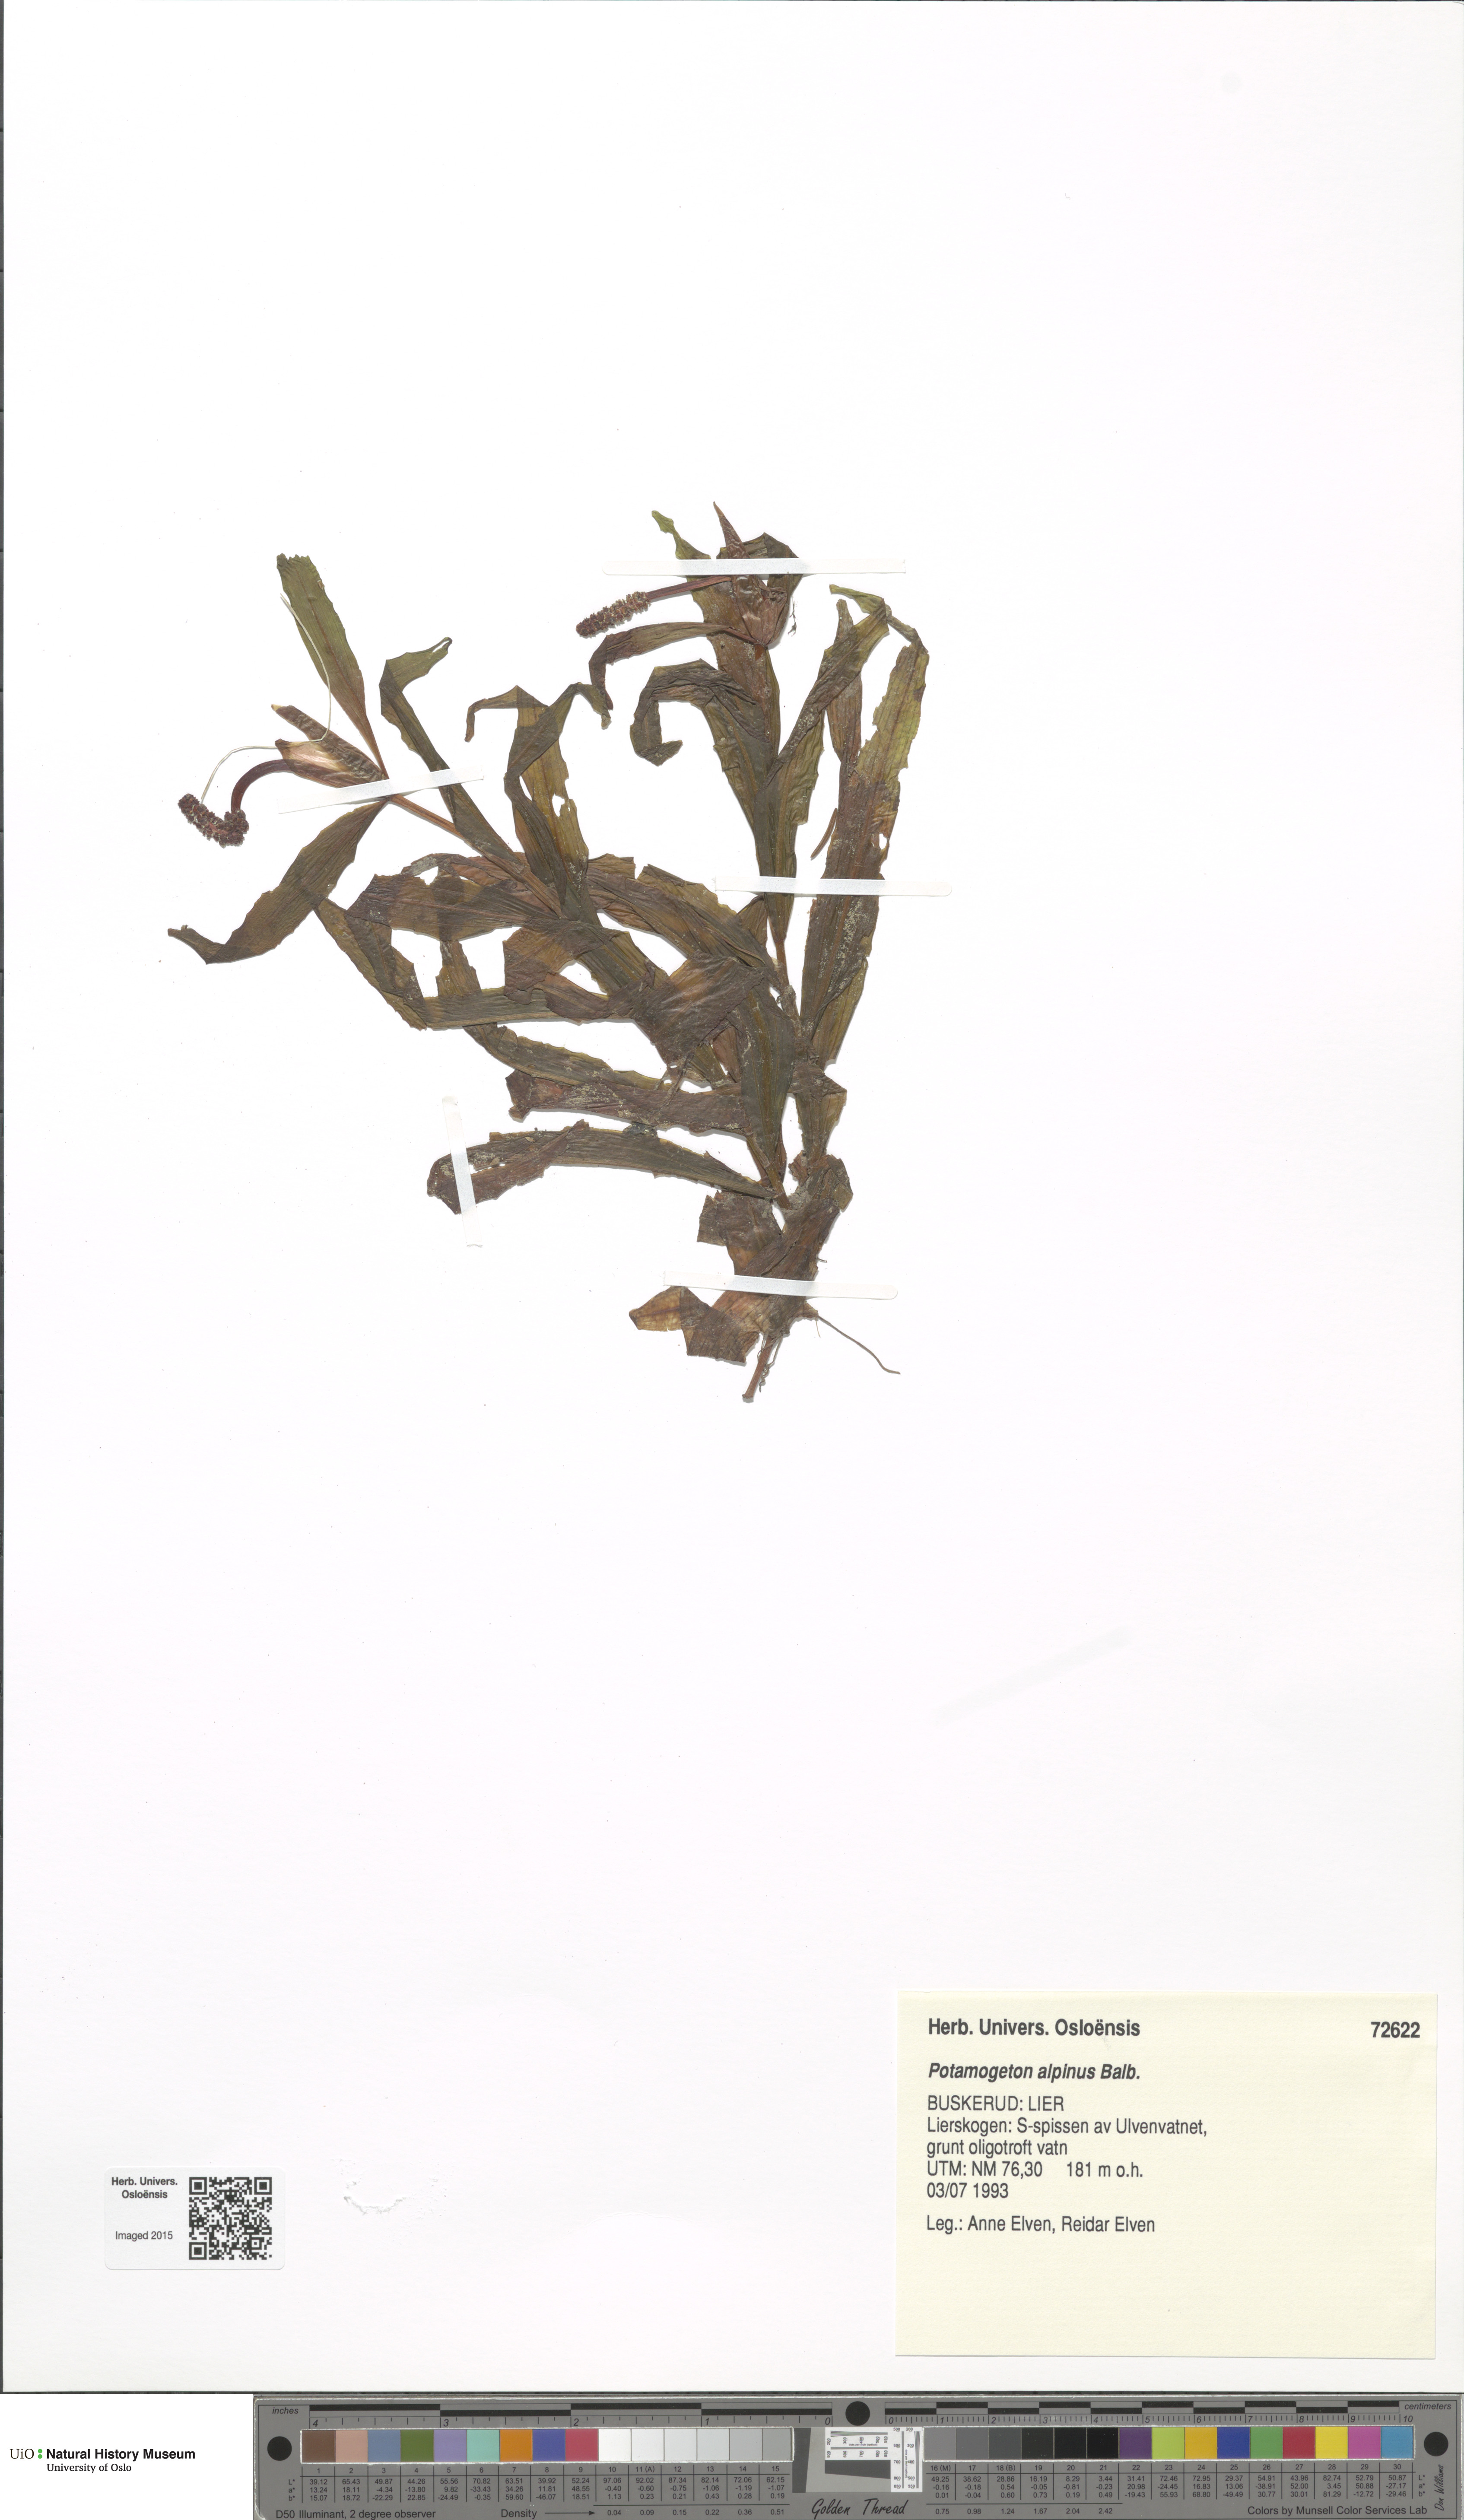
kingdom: Plantae
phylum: Tracheophyta
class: Liliopsida
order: Alismatales
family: Potamogetonaceae
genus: Potamogeton
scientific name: Potamogeton alpinus
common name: Red pondweed
